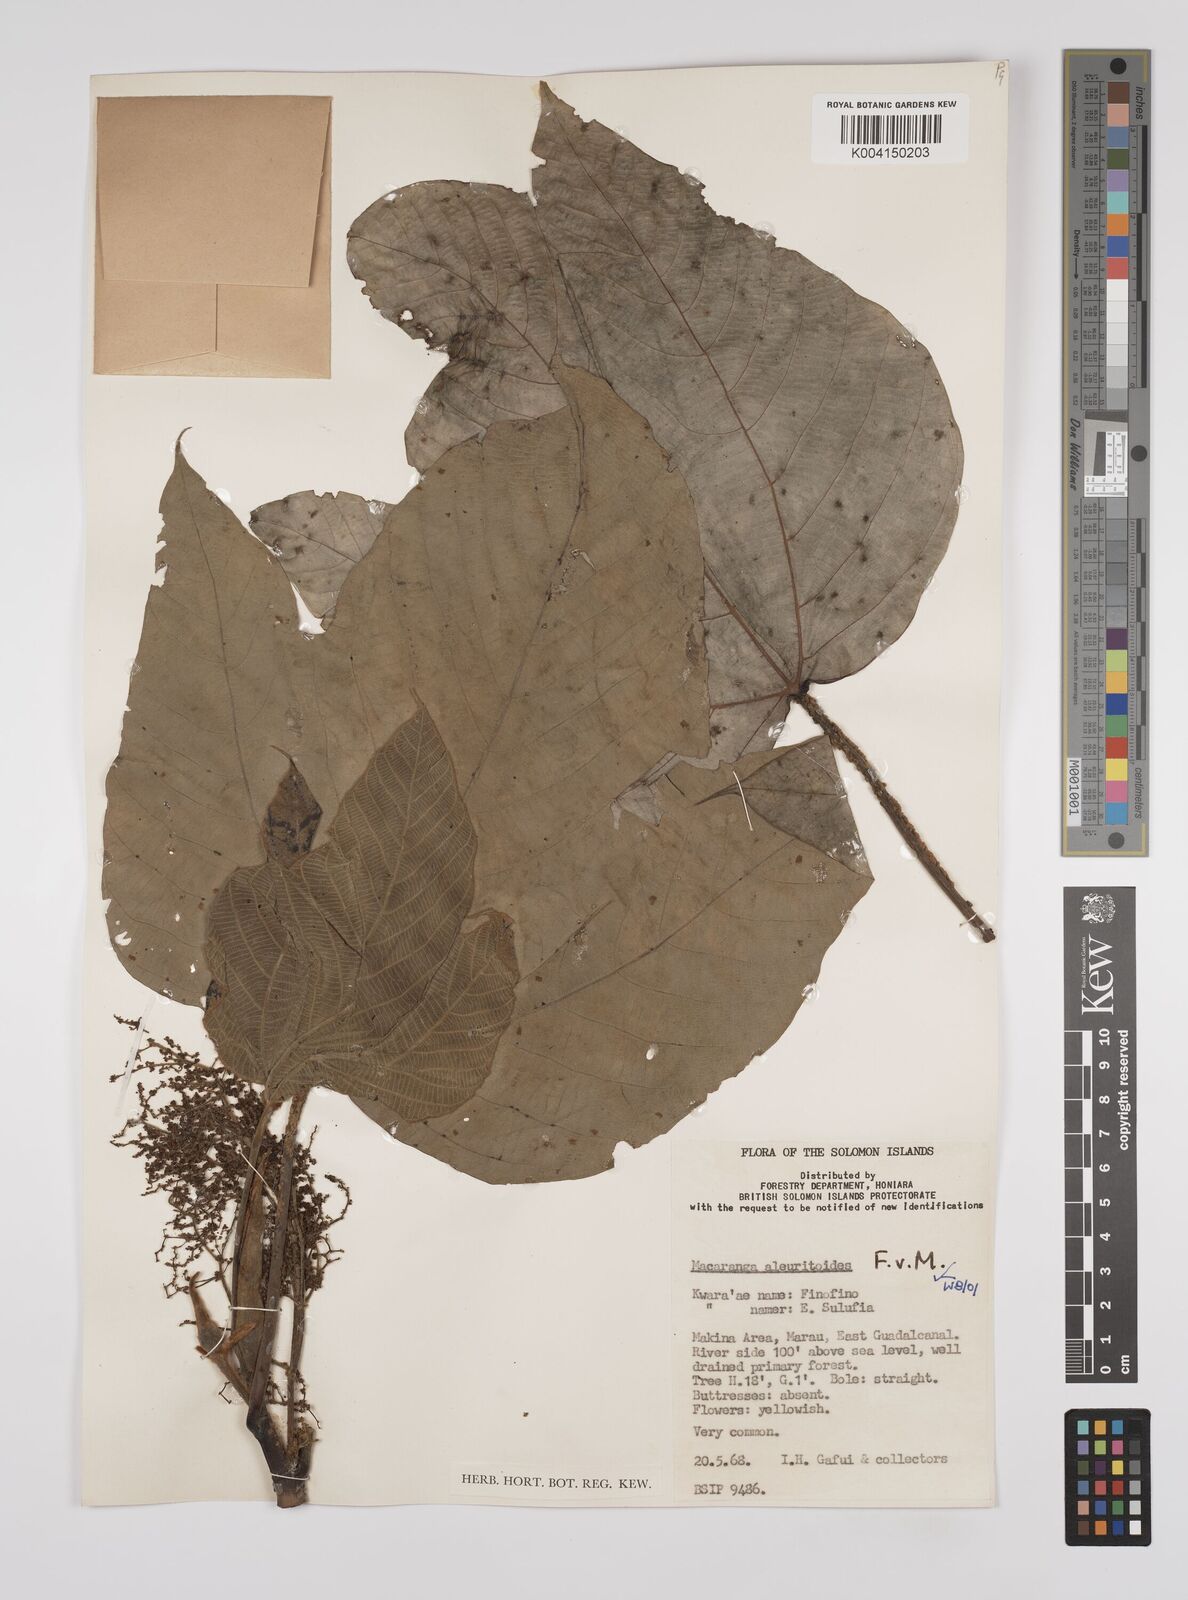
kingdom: Plantae
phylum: Tracheophyta
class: Magnoliopsida
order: Malpighiales
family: Euphorbiaceae
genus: Macaranga
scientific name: Macaranga aleuritoides
